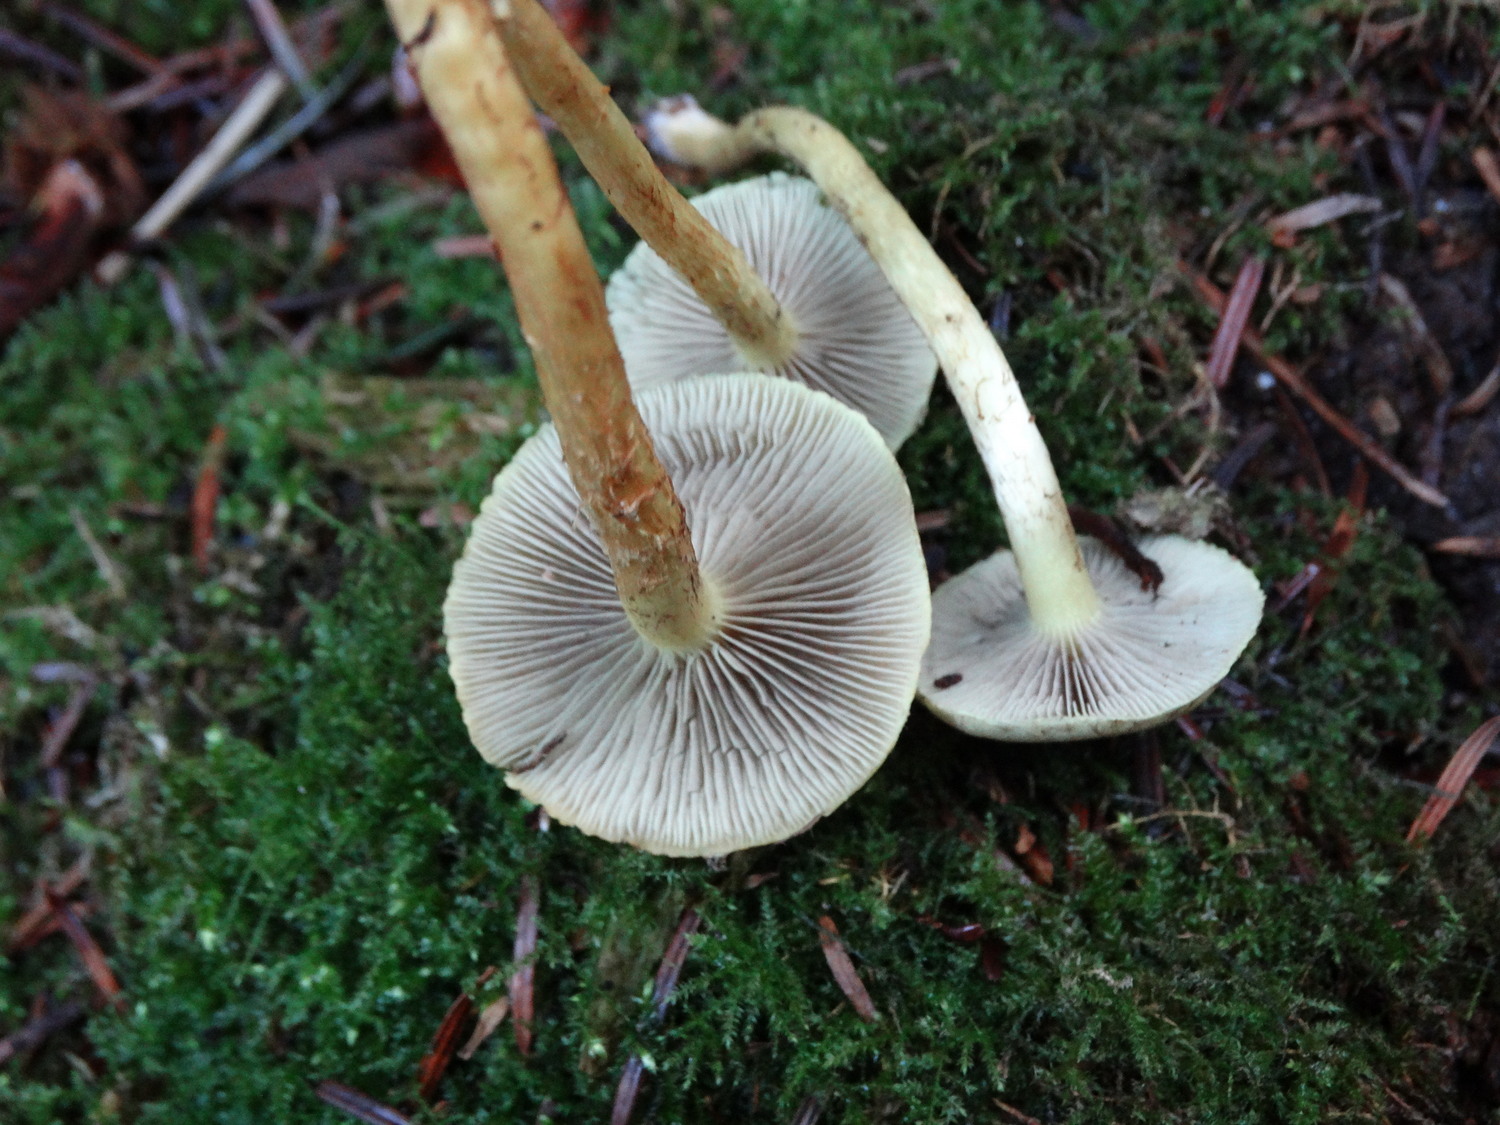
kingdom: Fungi
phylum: Basidiomycota
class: Agaricomycetes
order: Agaricales
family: Strophariaceae
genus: Hypholoma
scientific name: Hypholoma capnoides
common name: gran-svovlhat
